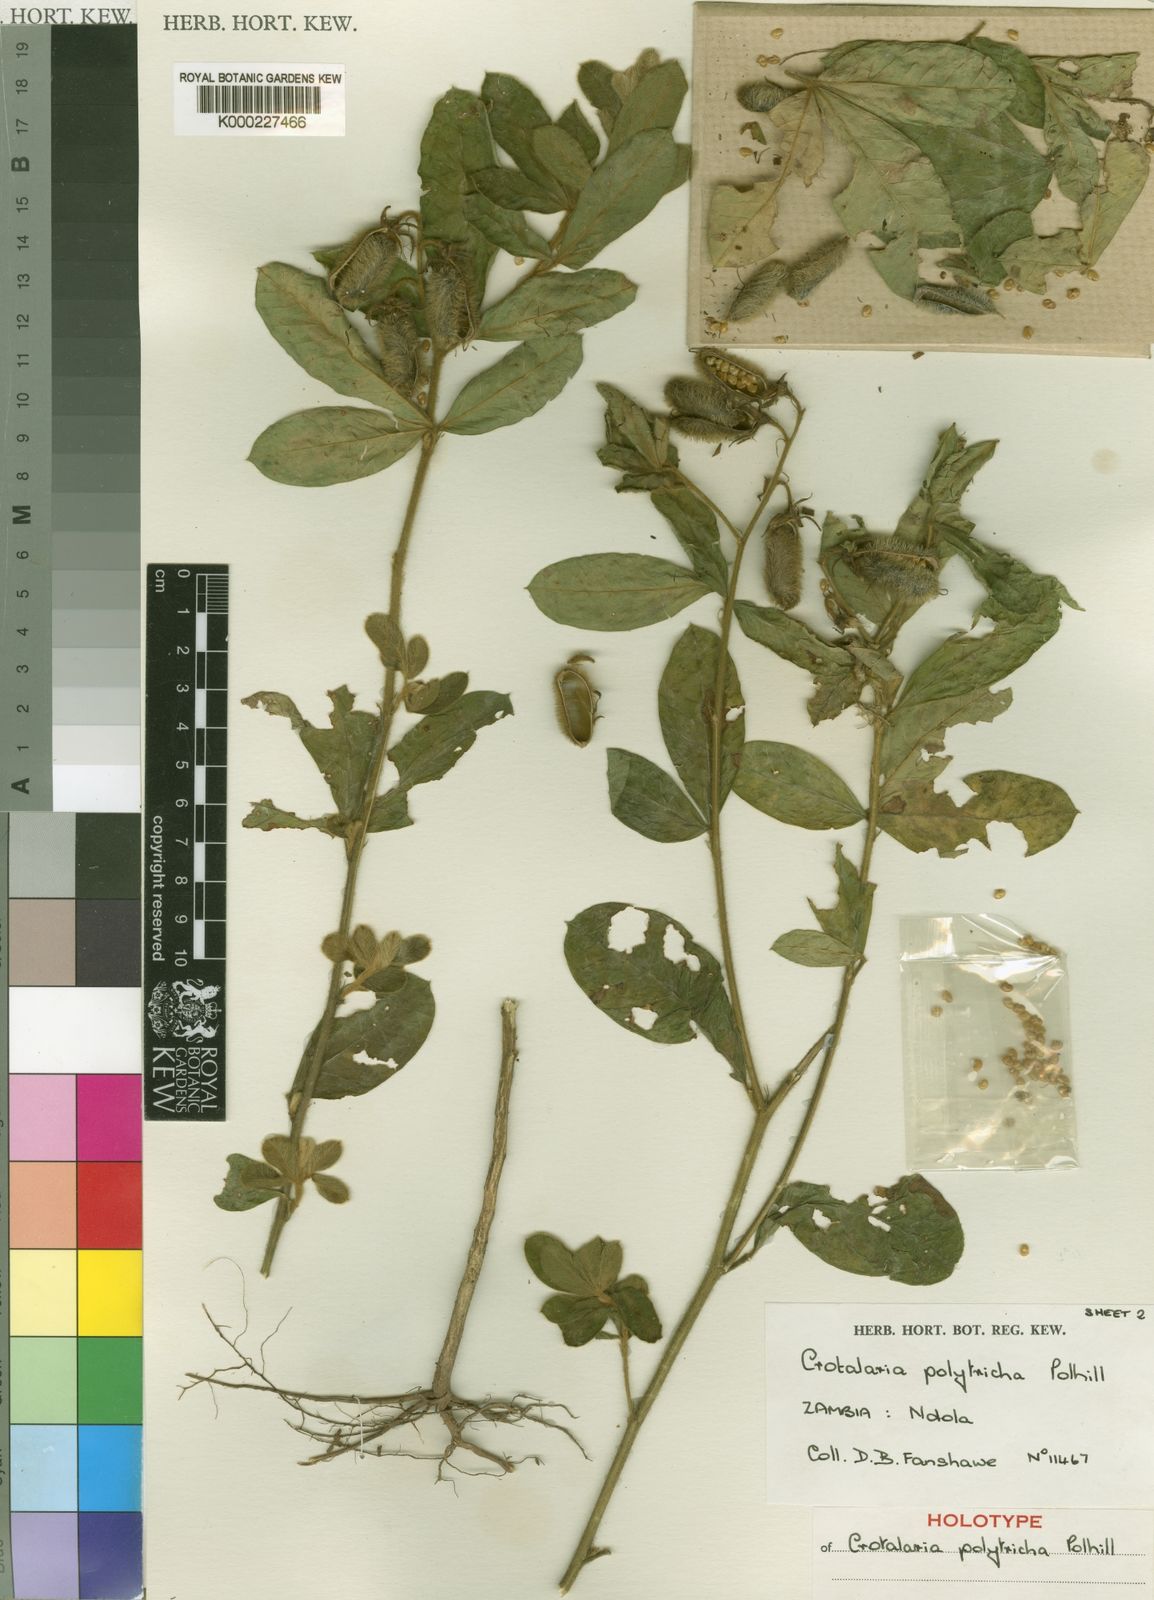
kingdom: Plantae
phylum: Tracheophyta
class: Magnoliopsida
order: Fabales
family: Fabaceae
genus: Crotalaria
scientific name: Crotalaria polytricha
